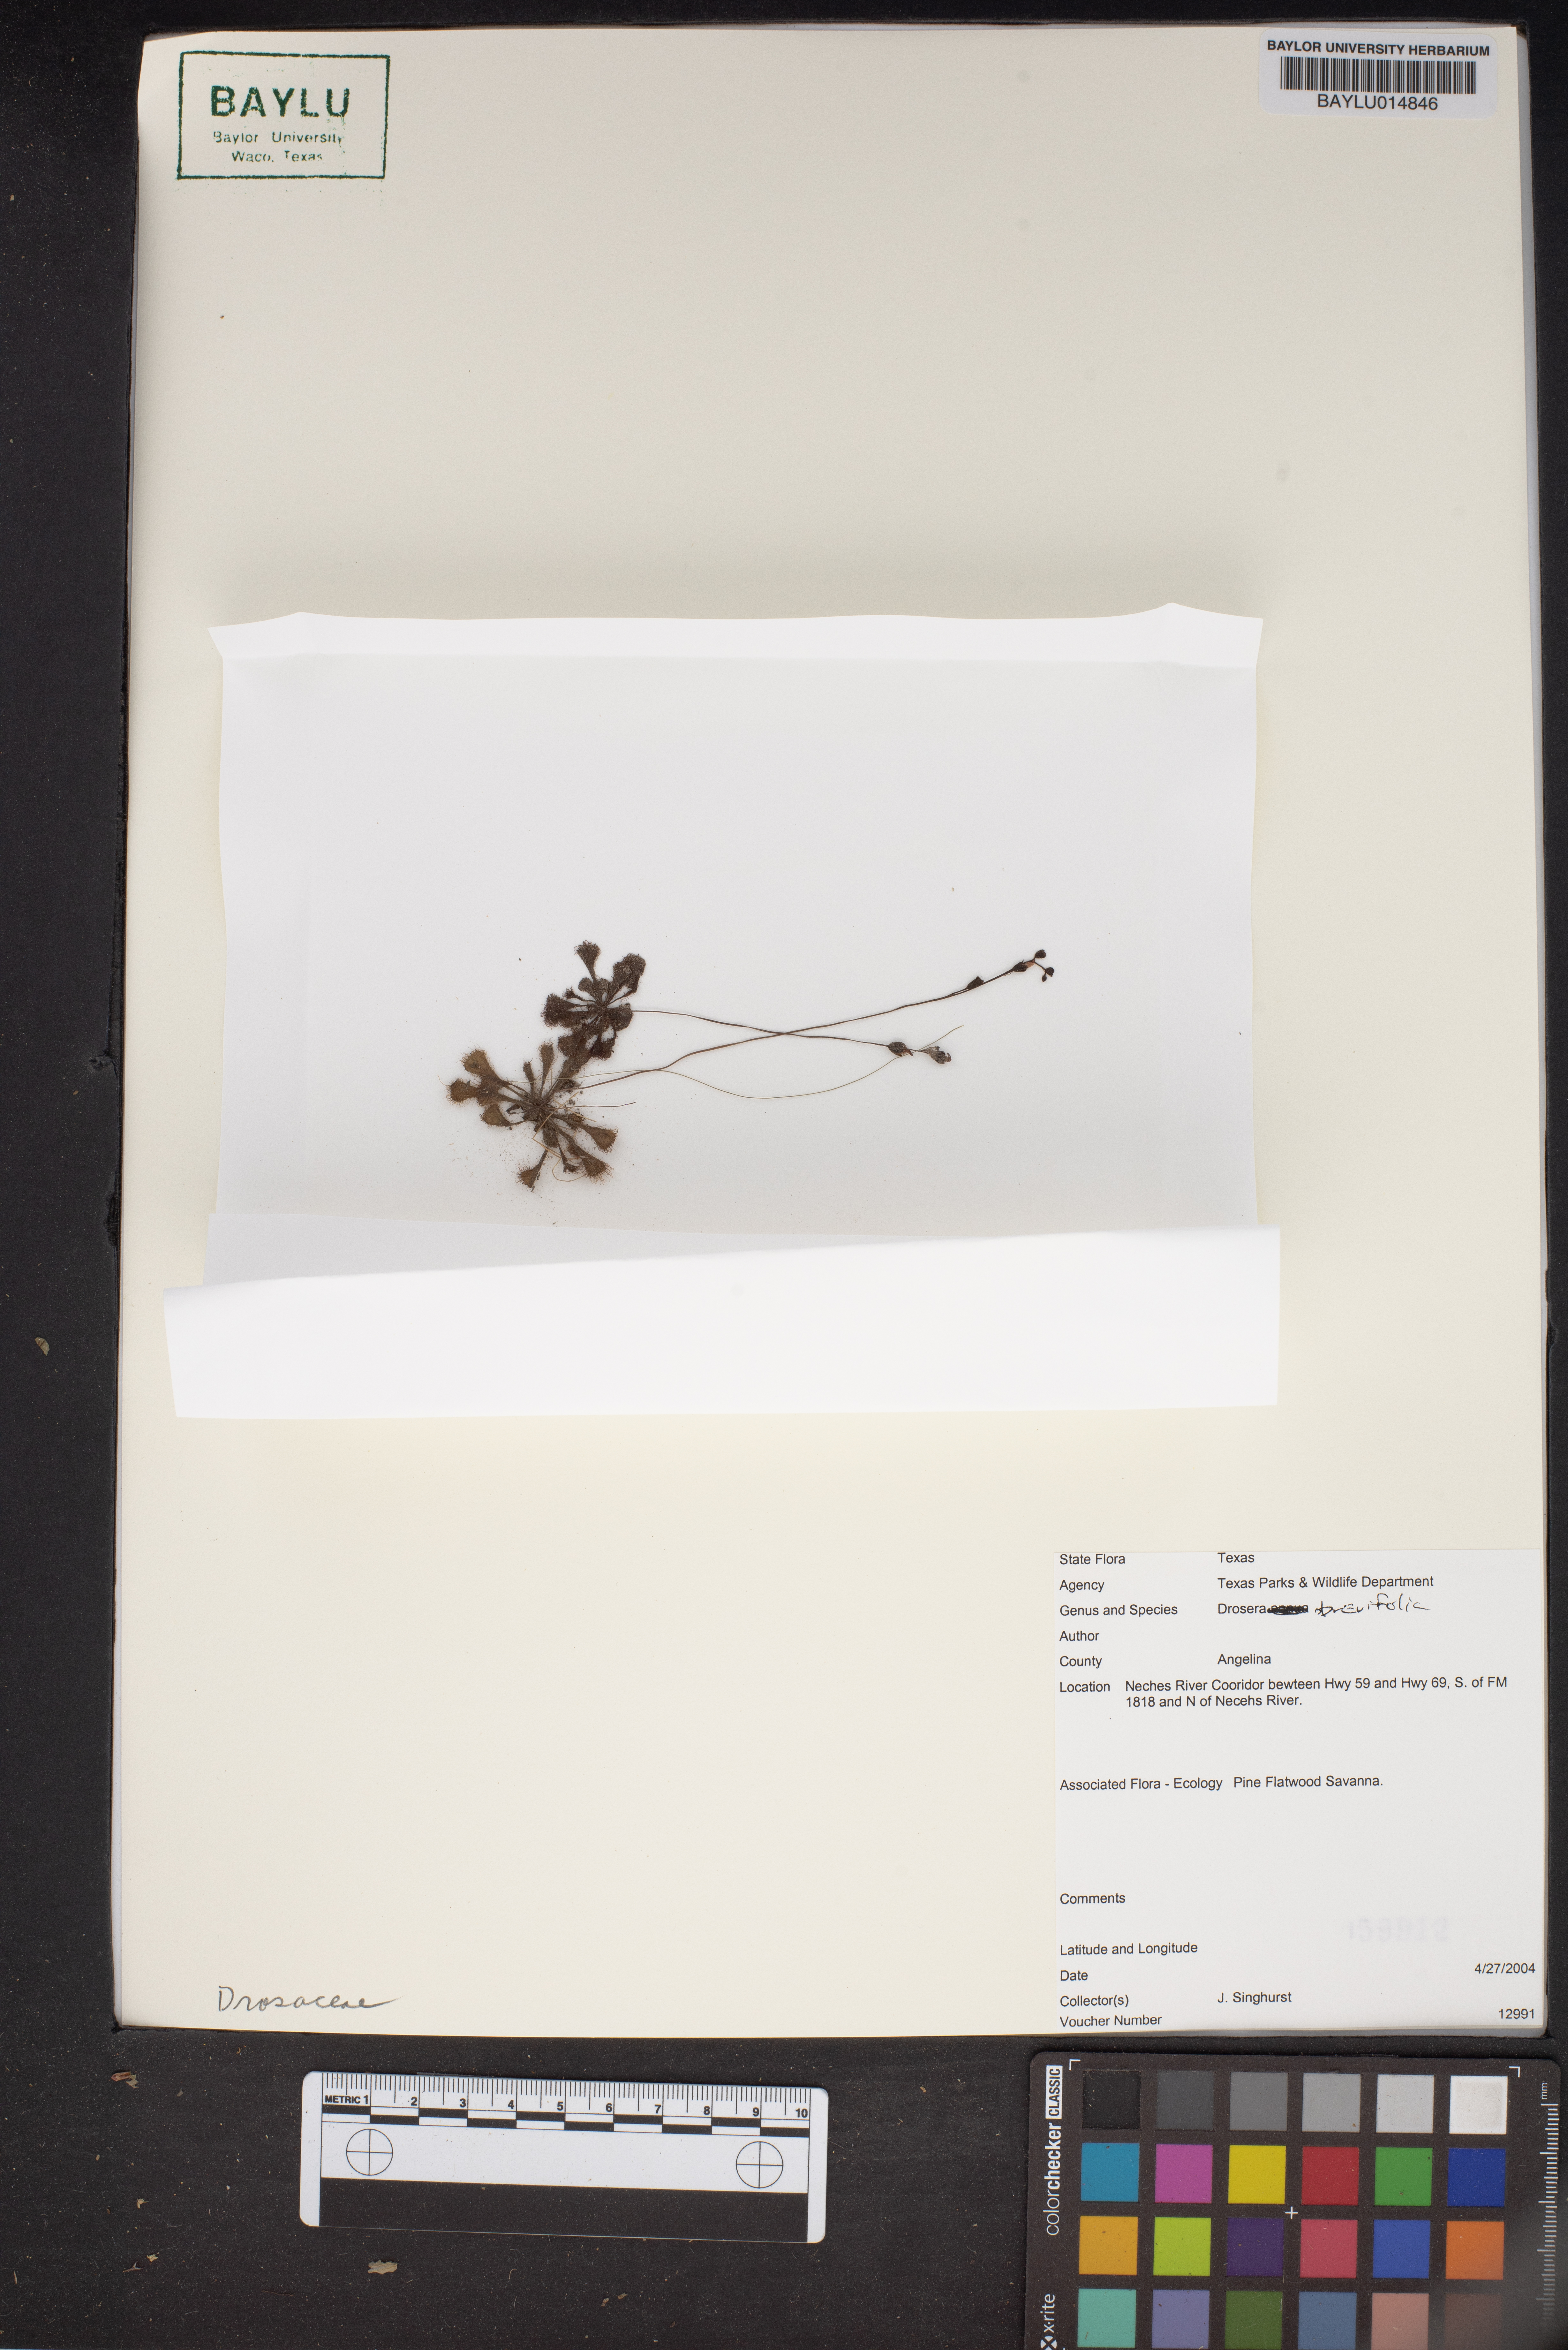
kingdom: Plantae
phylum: Tracheophyta
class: Magnoliopsida
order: Caryophyllales
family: Droseraceae
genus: Drosera
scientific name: Drosera brevifolia
